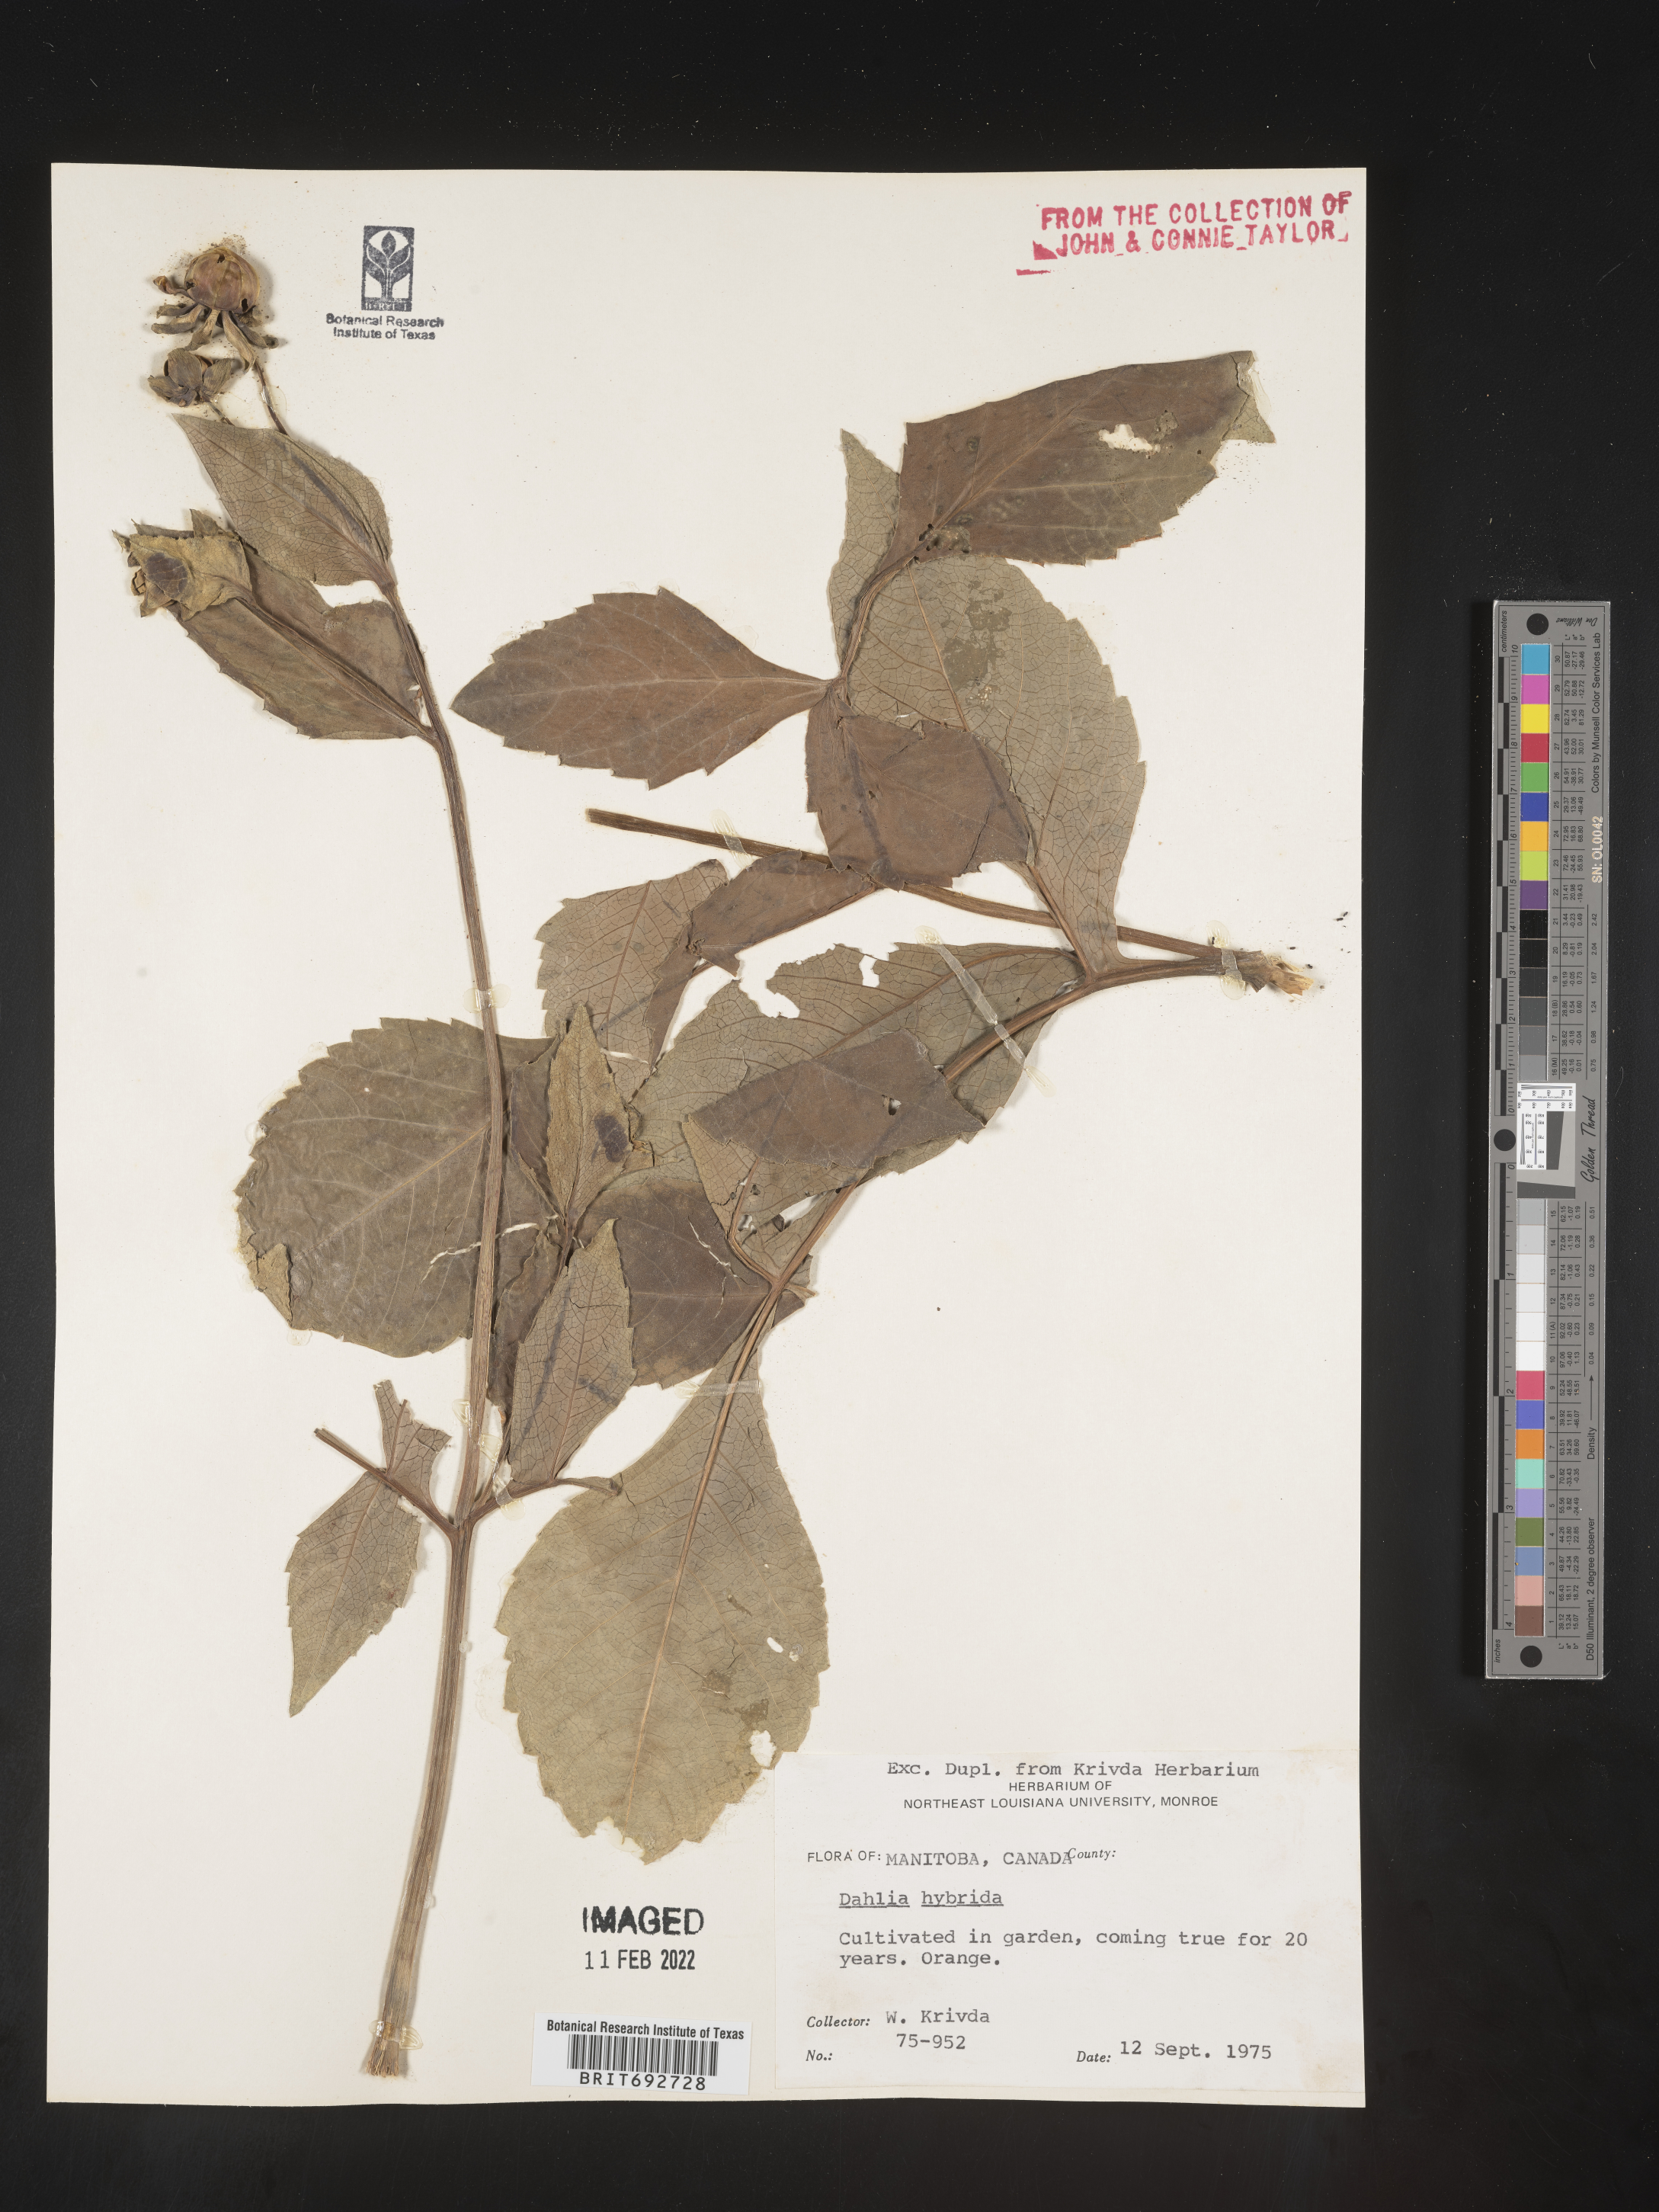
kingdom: Plantae
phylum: Tracheophyta
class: Magnoliopsida
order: Asterales
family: Asteraceae
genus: Dahlia
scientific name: Dahlia
